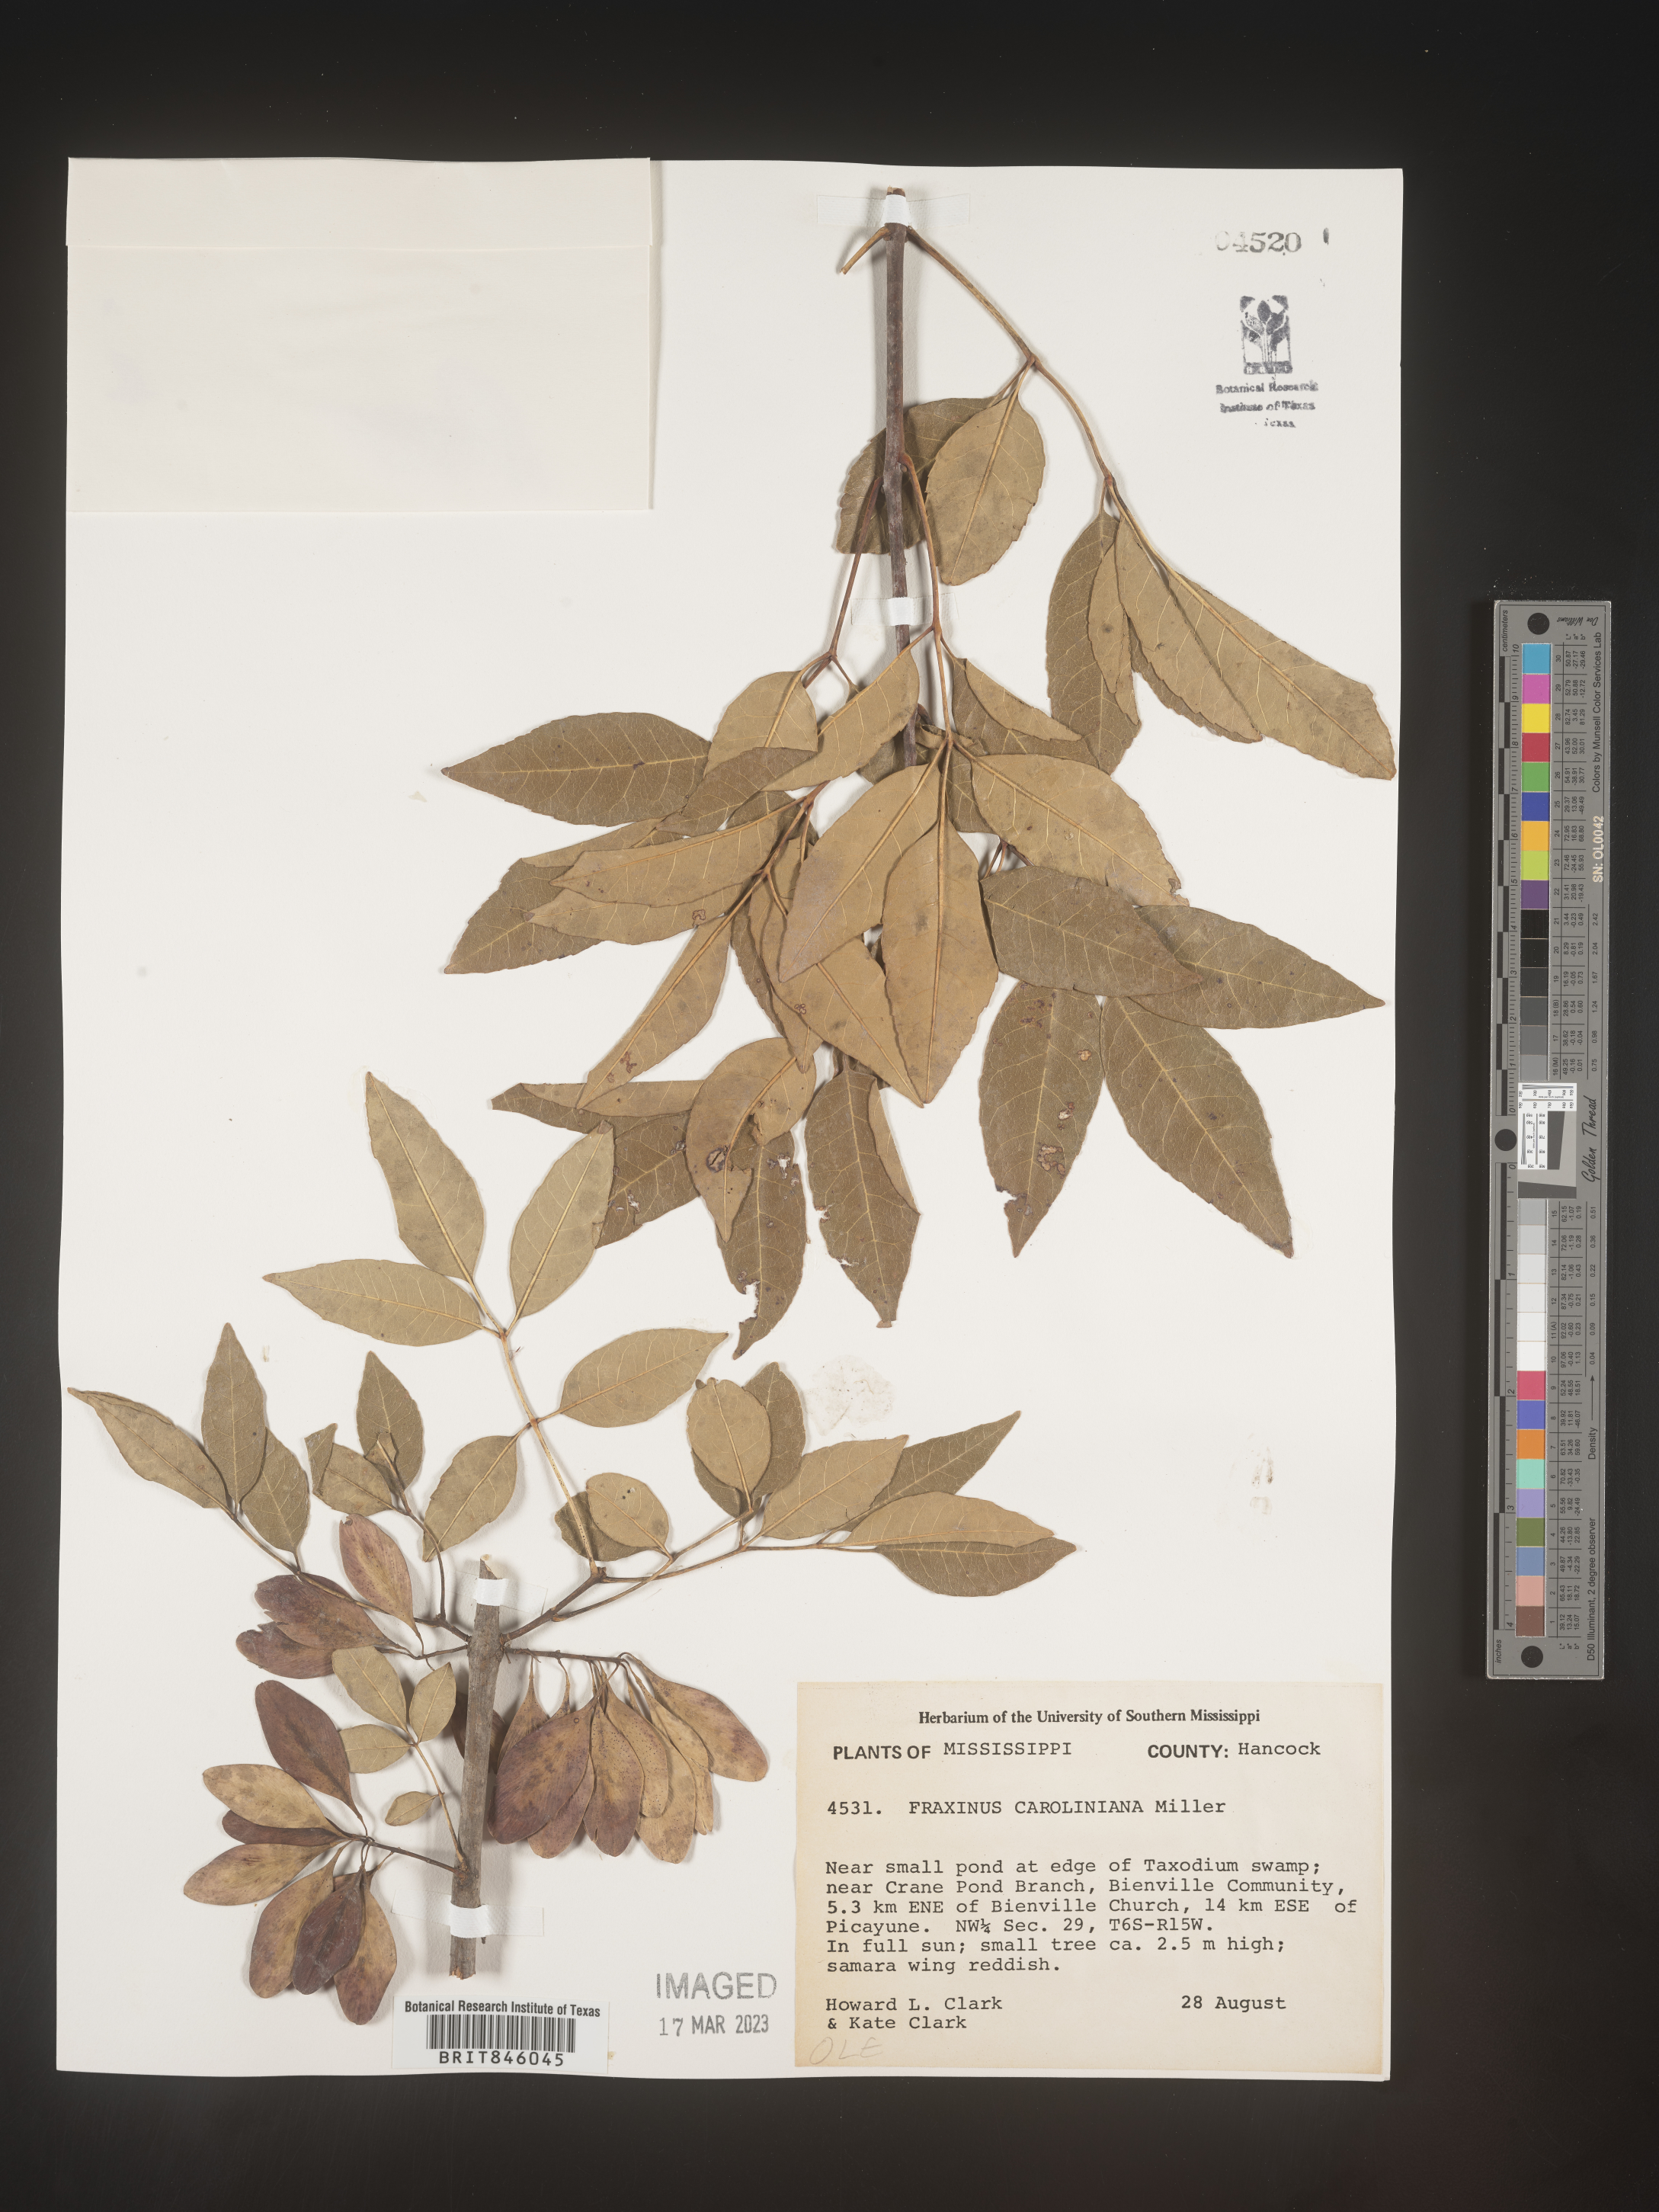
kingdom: Plantae
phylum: Tracheophyta
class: Magnoliopsida
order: Lamiales
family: Oleaceae
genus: Fraxinus
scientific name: Fraxinus caroliniana
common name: Carolina ash
